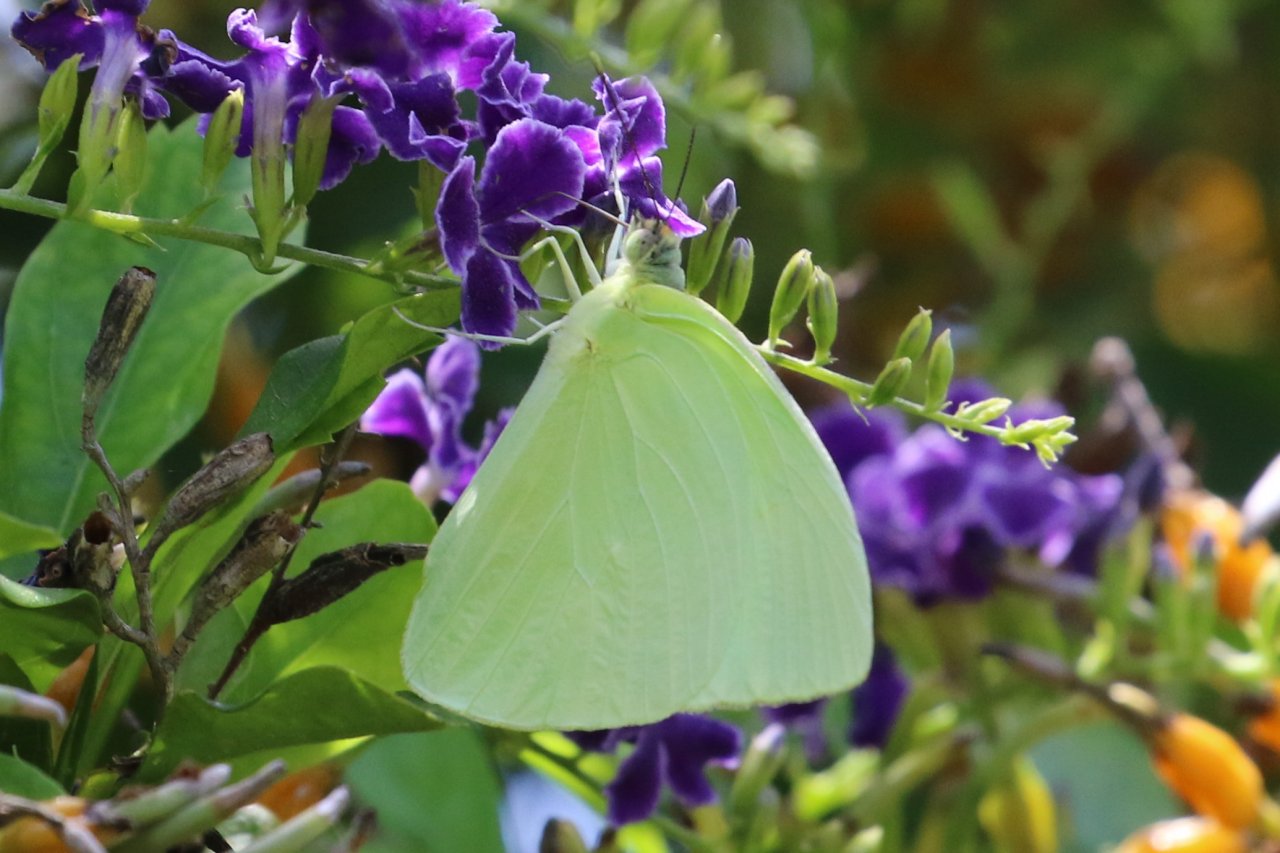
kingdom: Animalia
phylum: Arthropoda
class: Insecta
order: Lepidoptera
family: Pieridae
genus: Aphrissa
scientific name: Aphrissa statira
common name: Statira Sulphur
